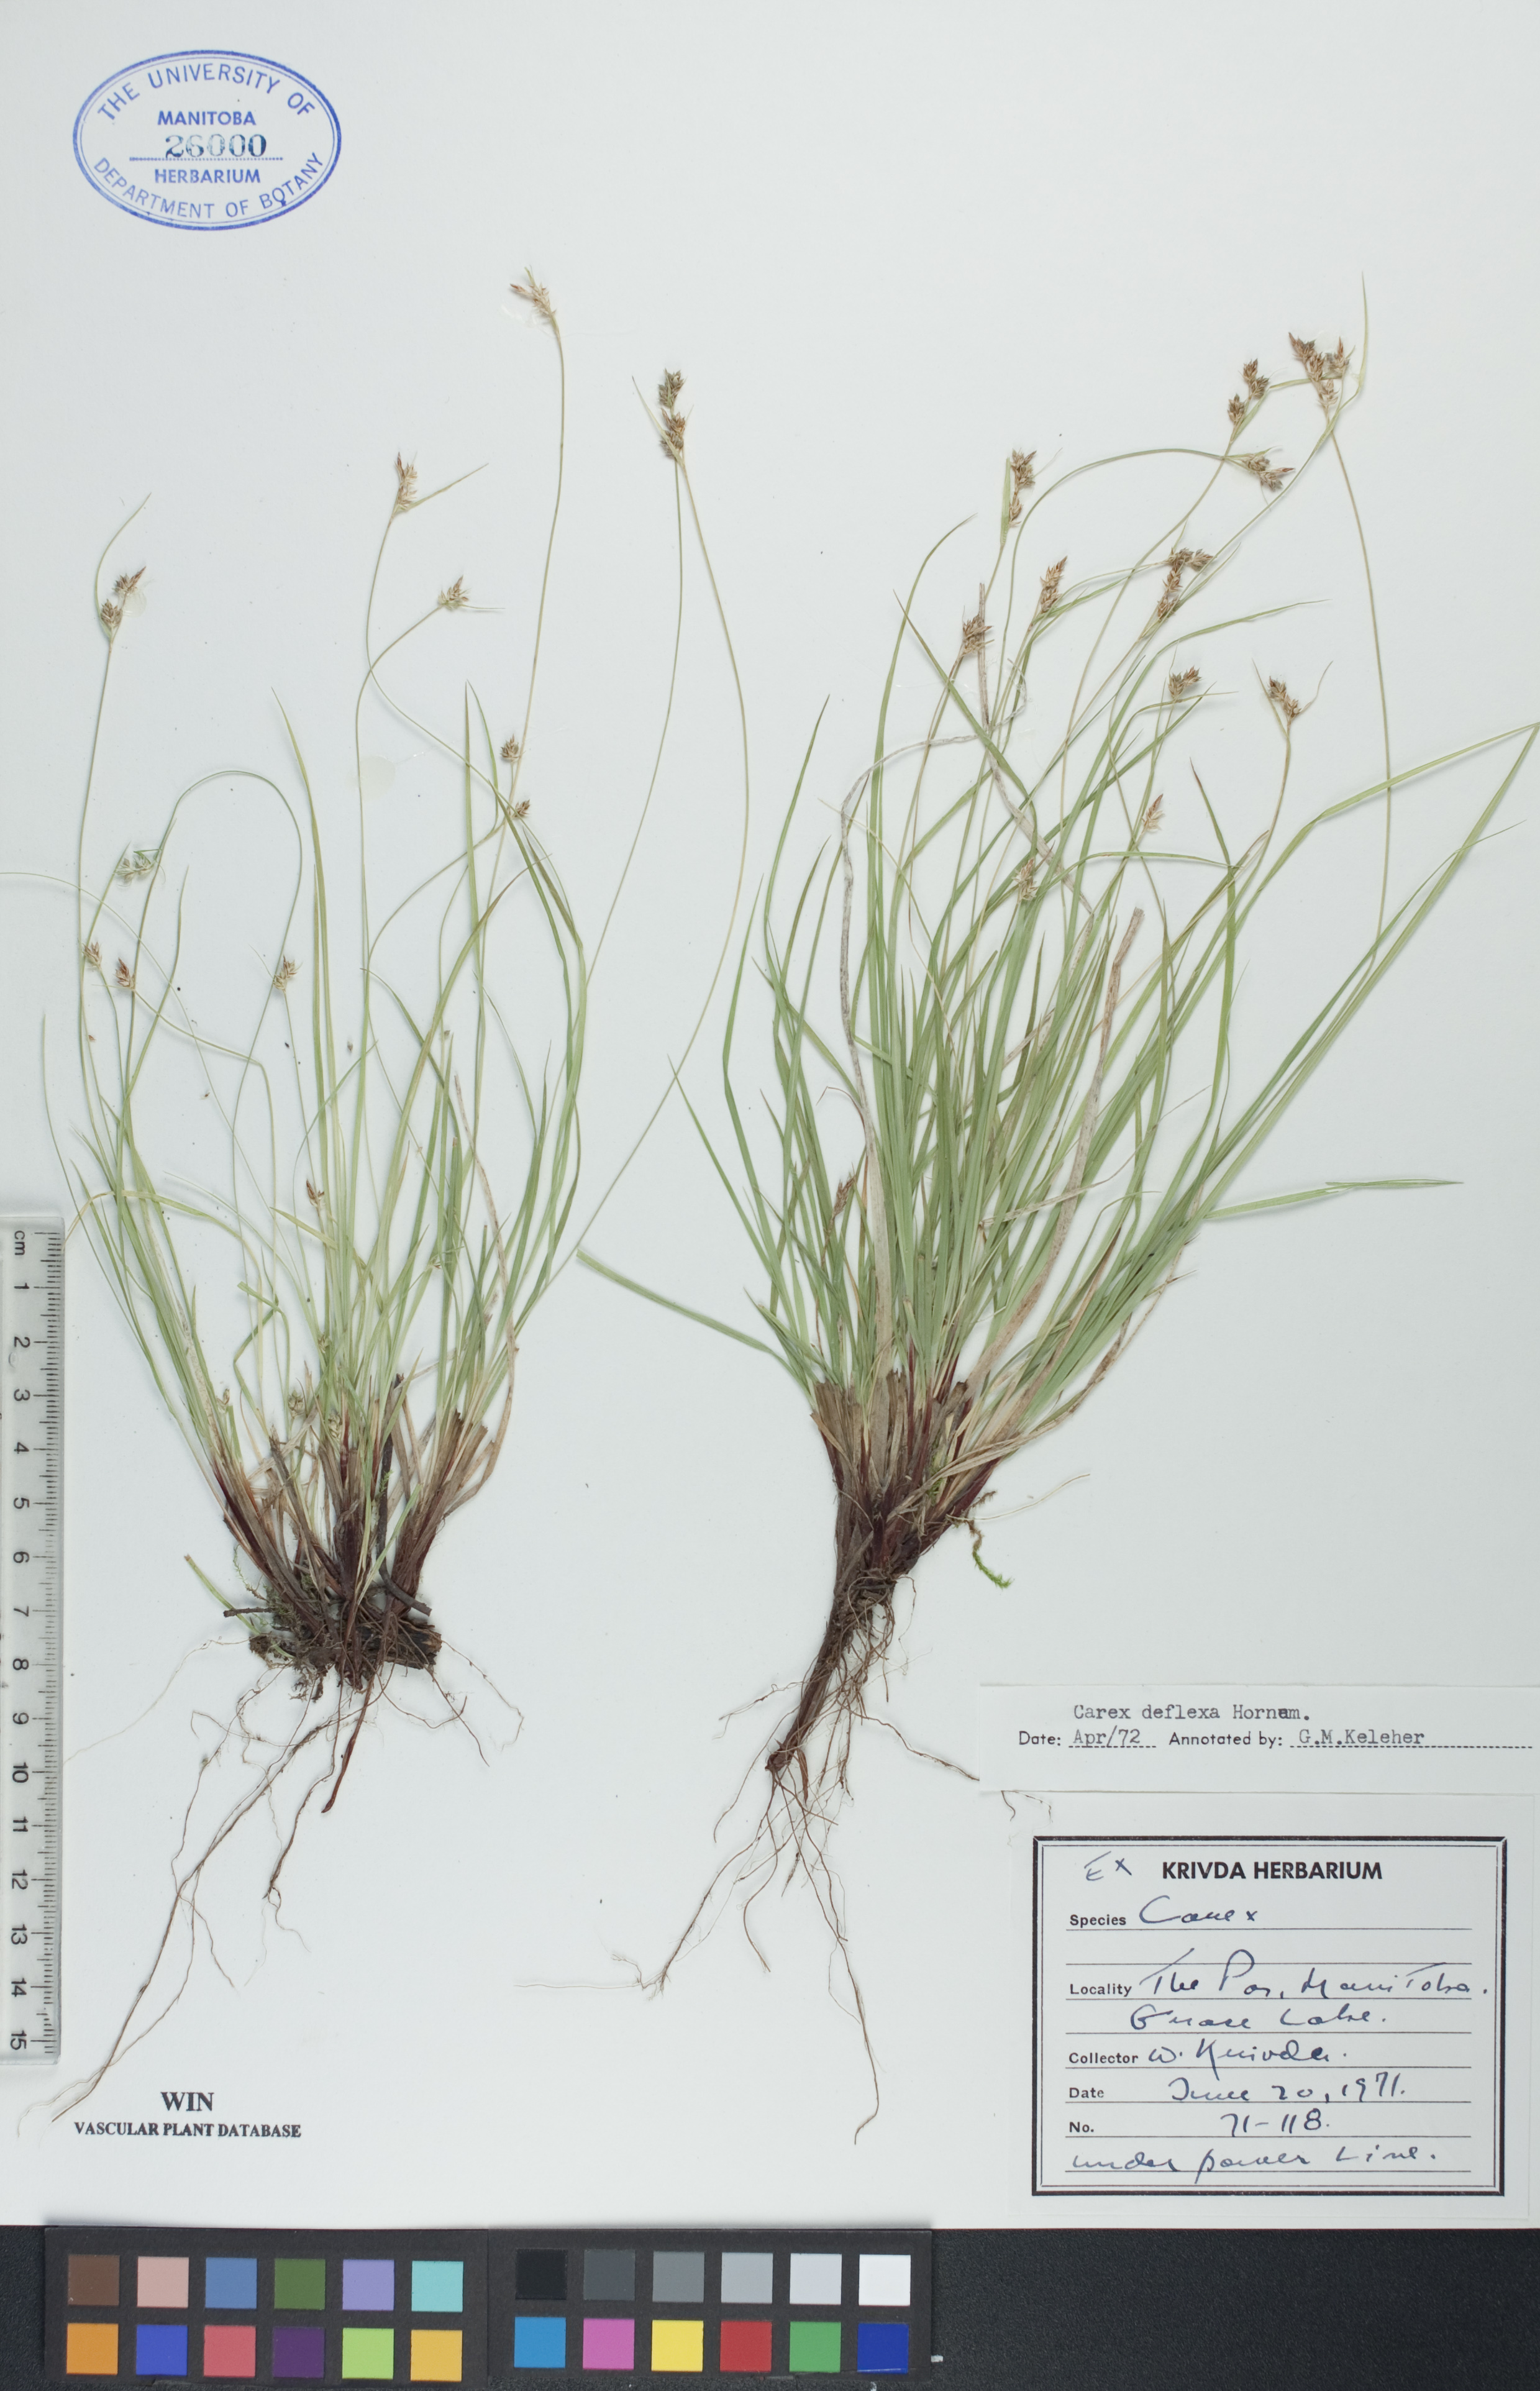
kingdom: Plantae
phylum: Tracheophyta
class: Liliopsida
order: Poales
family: Cyperaceae
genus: Carex
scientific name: Carex deflexa
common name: Bent northern sedge
